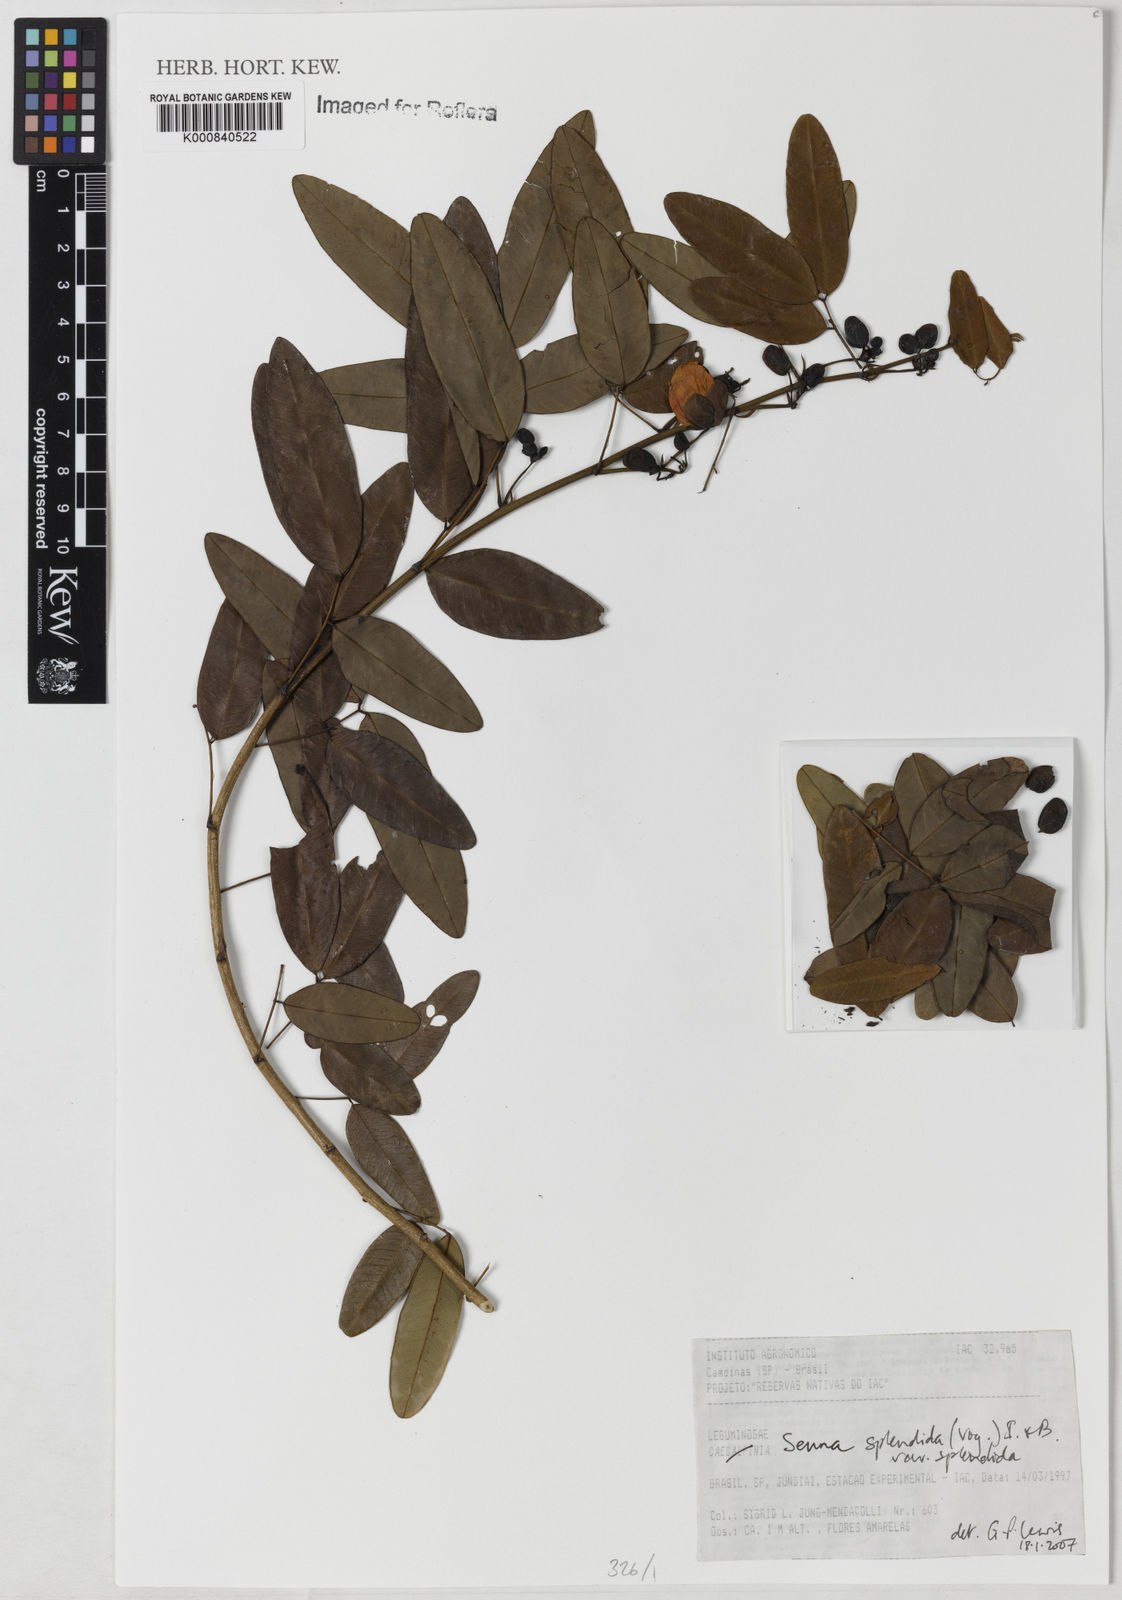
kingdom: Plantae
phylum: Tracheophyta
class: Magnoliopsida
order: Fabales
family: Fabaceae
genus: Senna
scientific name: Senna splendida
